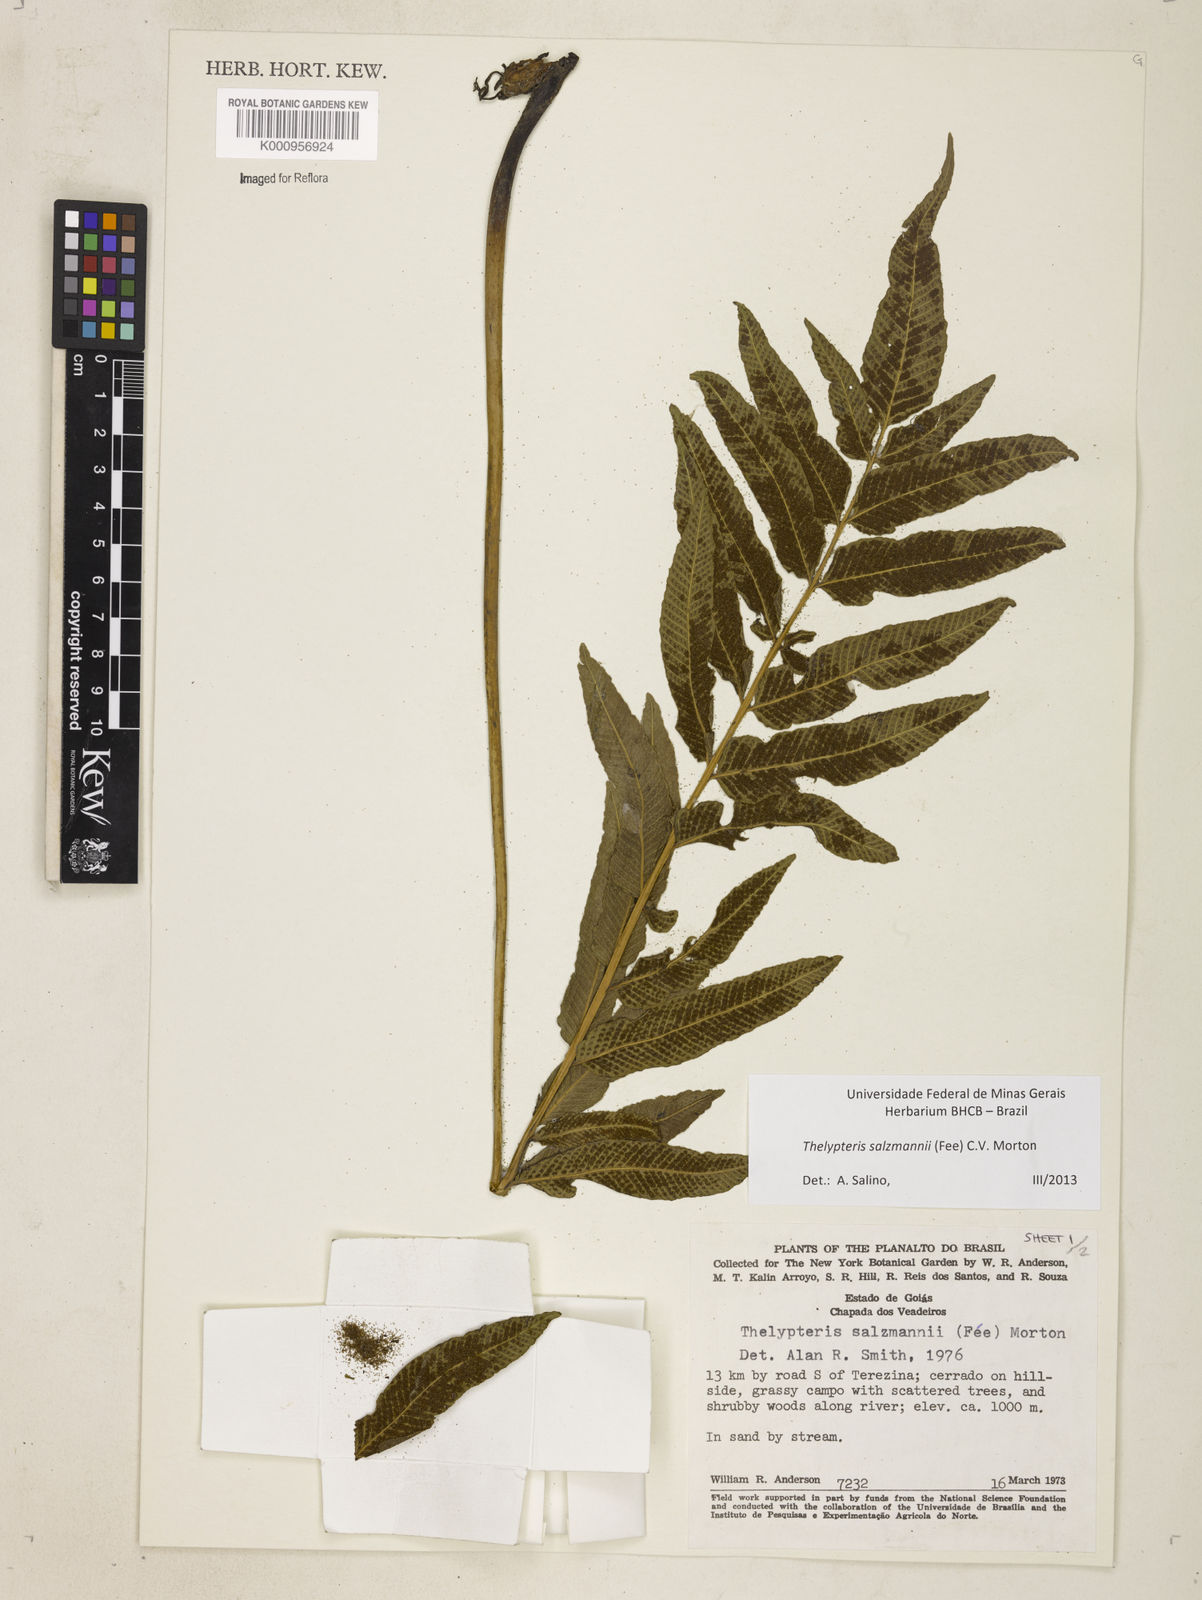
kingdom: Plantae
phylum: Tracheophyta
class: Polypodiopsida
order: Polypodiales
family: Thelypteridaceae
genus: Meniscium
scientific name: Meniscium arborescens
